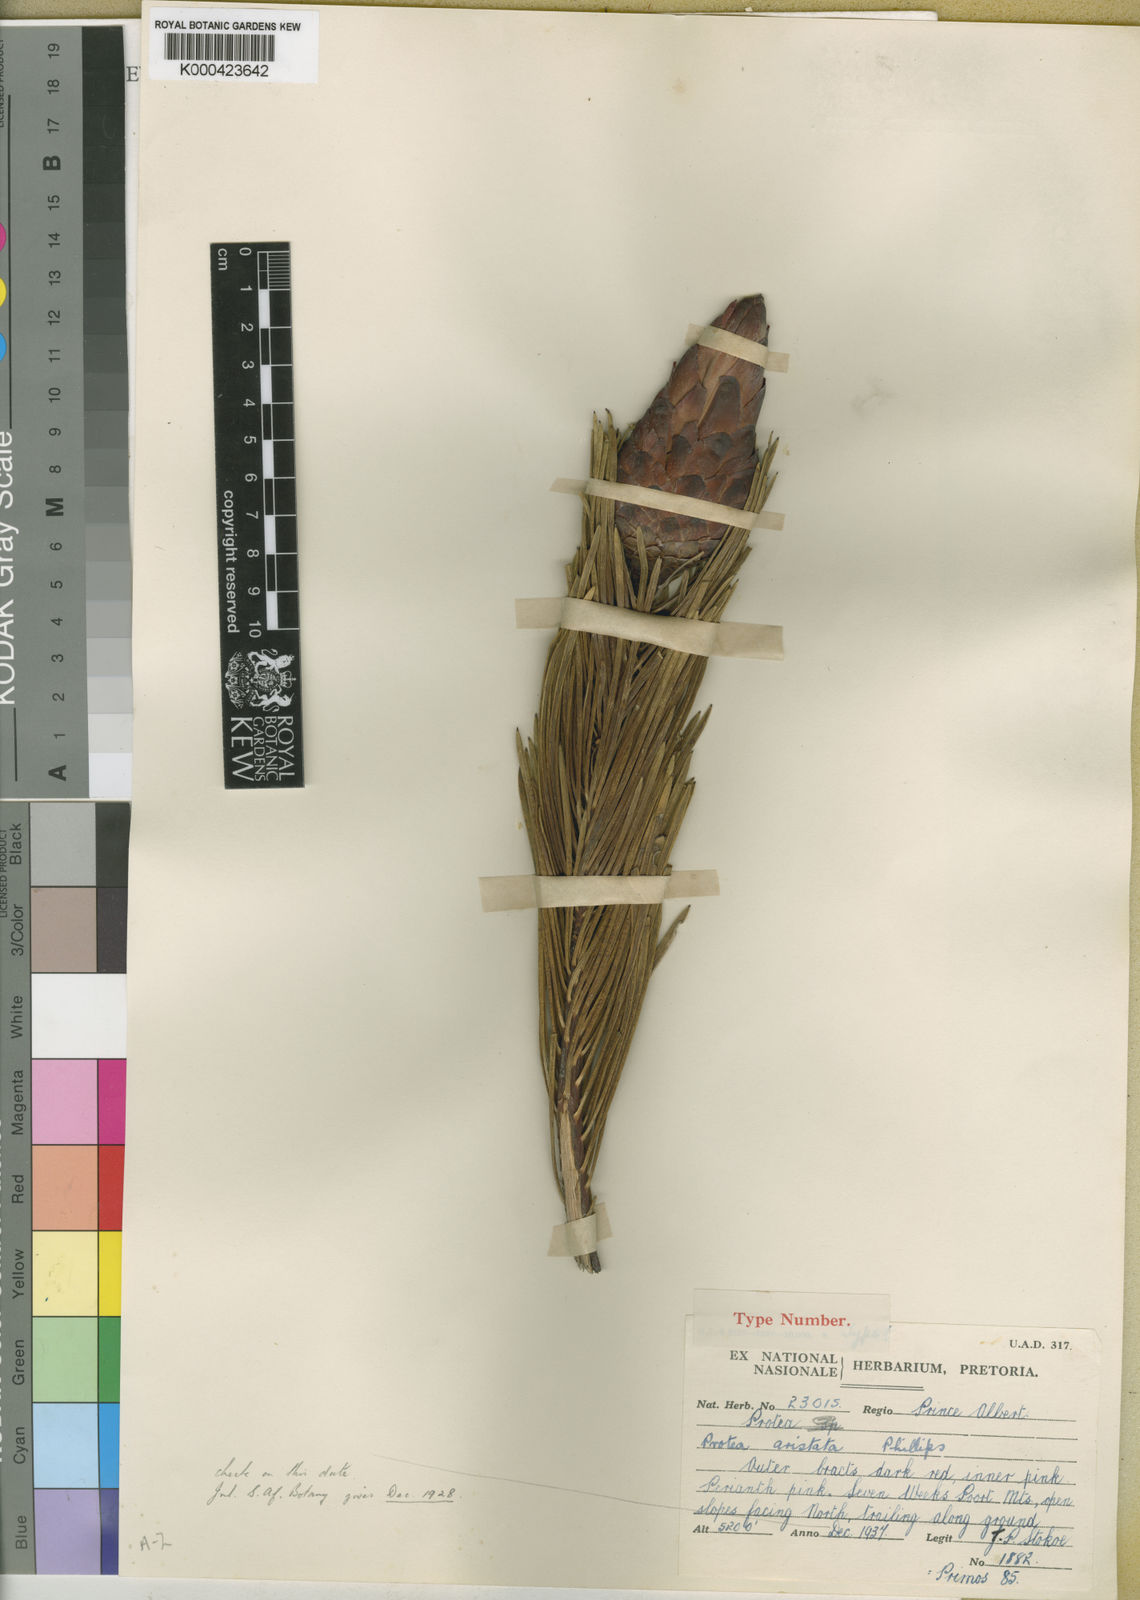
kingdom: Plantae
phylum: Tracheophyta
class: Magnoliopsida
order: Proteales
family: Proteaceae
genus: Protea
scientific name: Protea aristata
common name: Ladismith sugarbush
